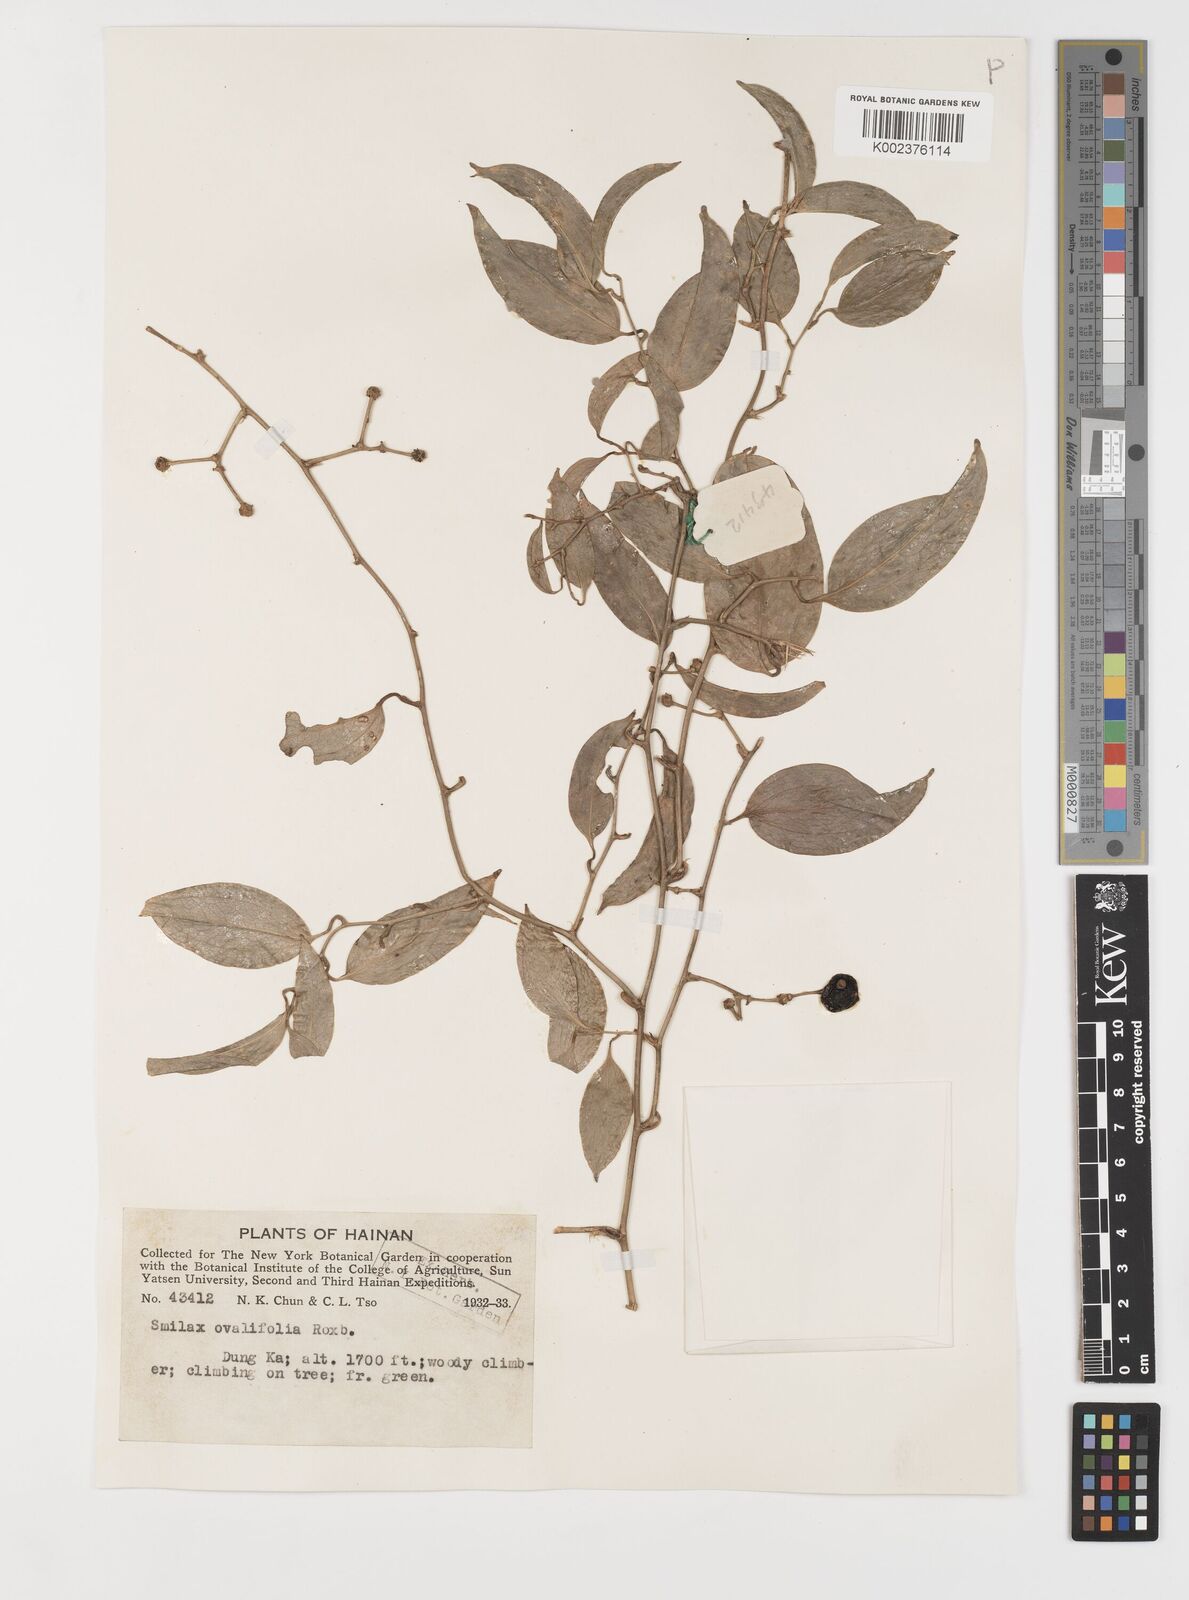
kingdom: Plantae
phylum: Tracheophyta
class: Liliopsida
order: Liliales
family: Smilacaceae
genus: Smilax
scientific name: Smilax ovalifolia
